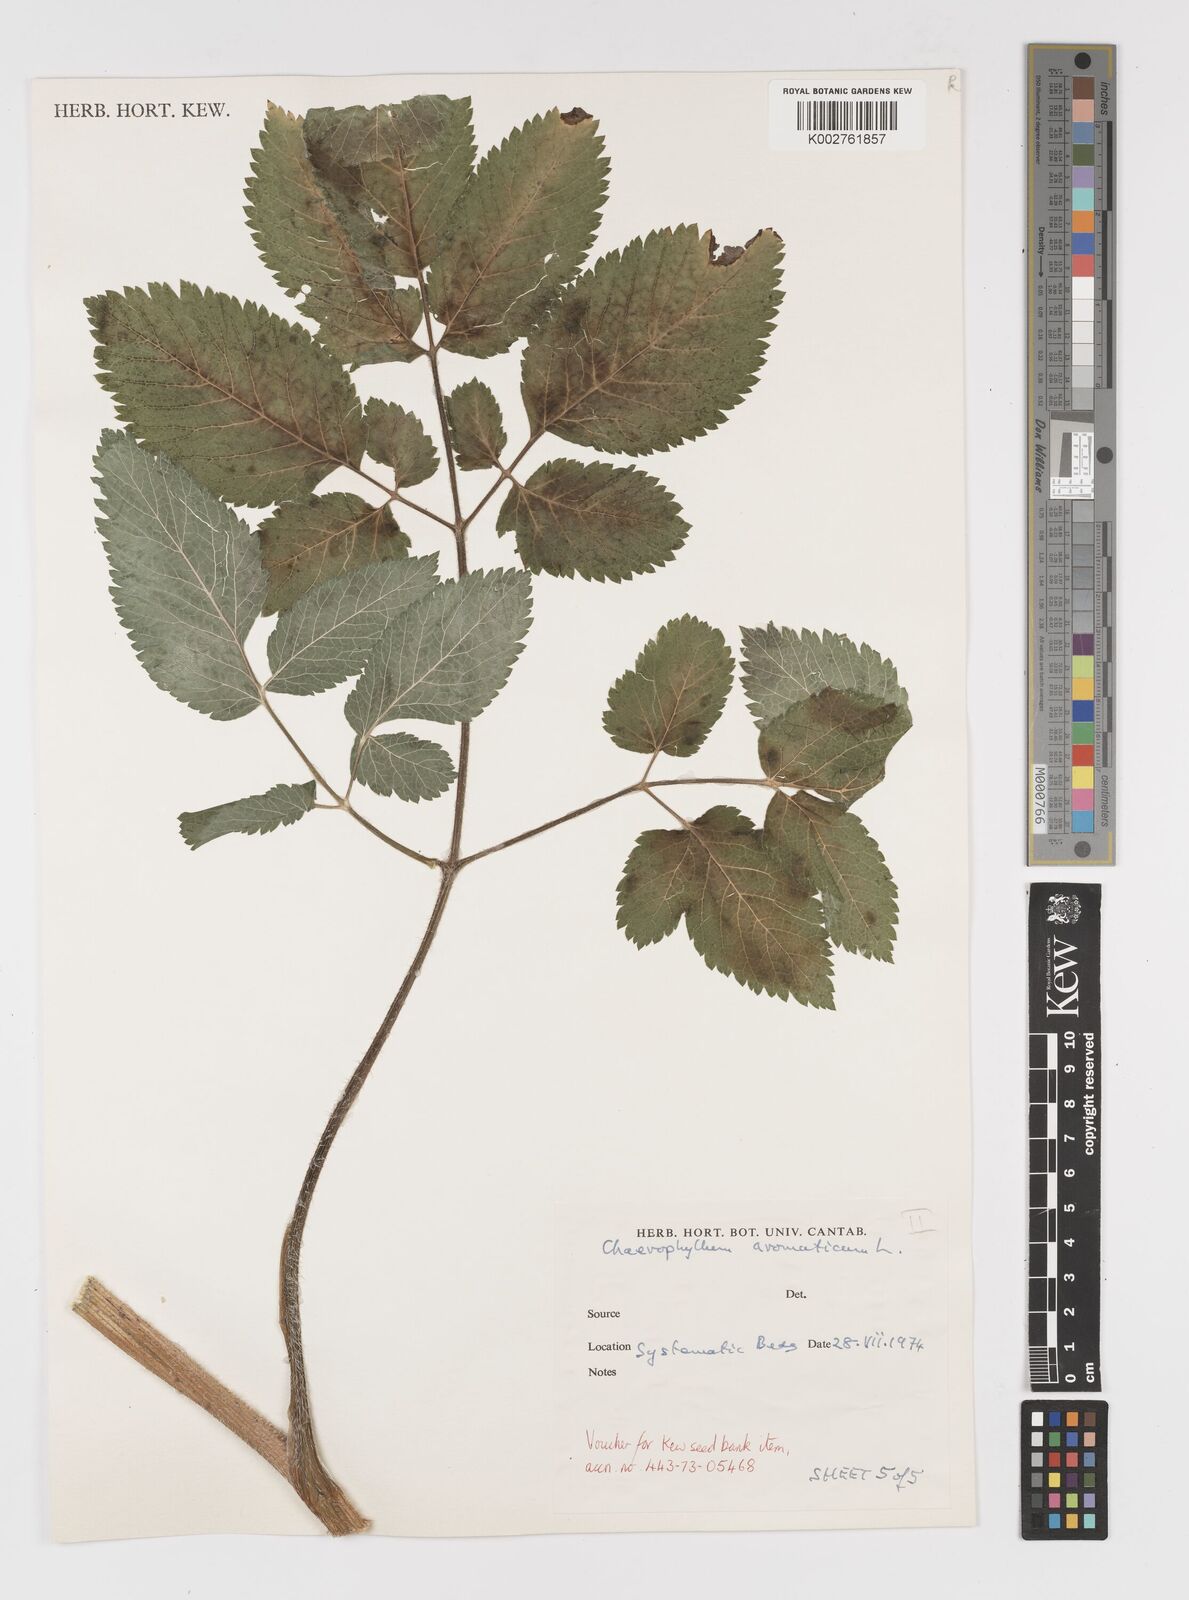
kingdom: Plantae
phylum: Tracheophyta
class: Magnoliopsida
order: Apiales
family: Apiaceae
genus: Chaerophyllum
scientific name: Chaerophyllum aromaticum
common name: Broadleaf chervil
